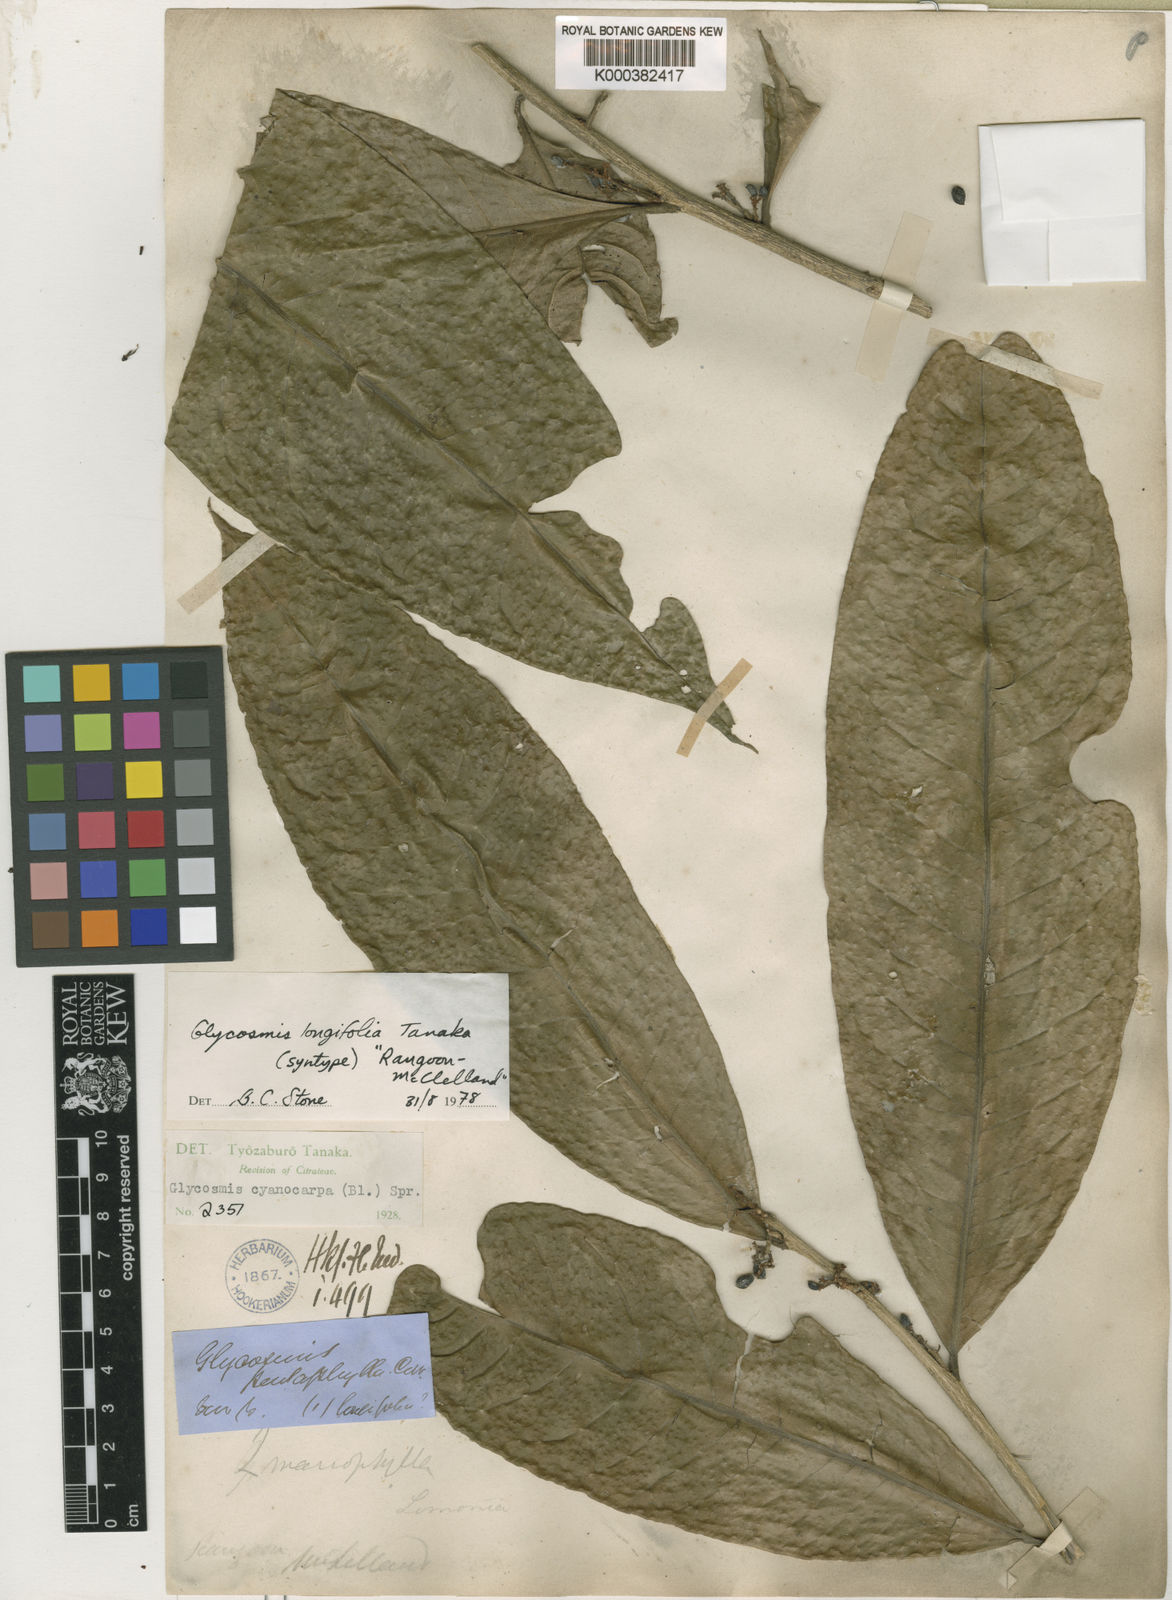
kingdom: Plantae
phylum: Tracheophyta
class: Magnoliopsida
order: Sapindales
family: Rutaceae
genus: Glycosmis
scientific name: Glycosmis cyanocarpa
